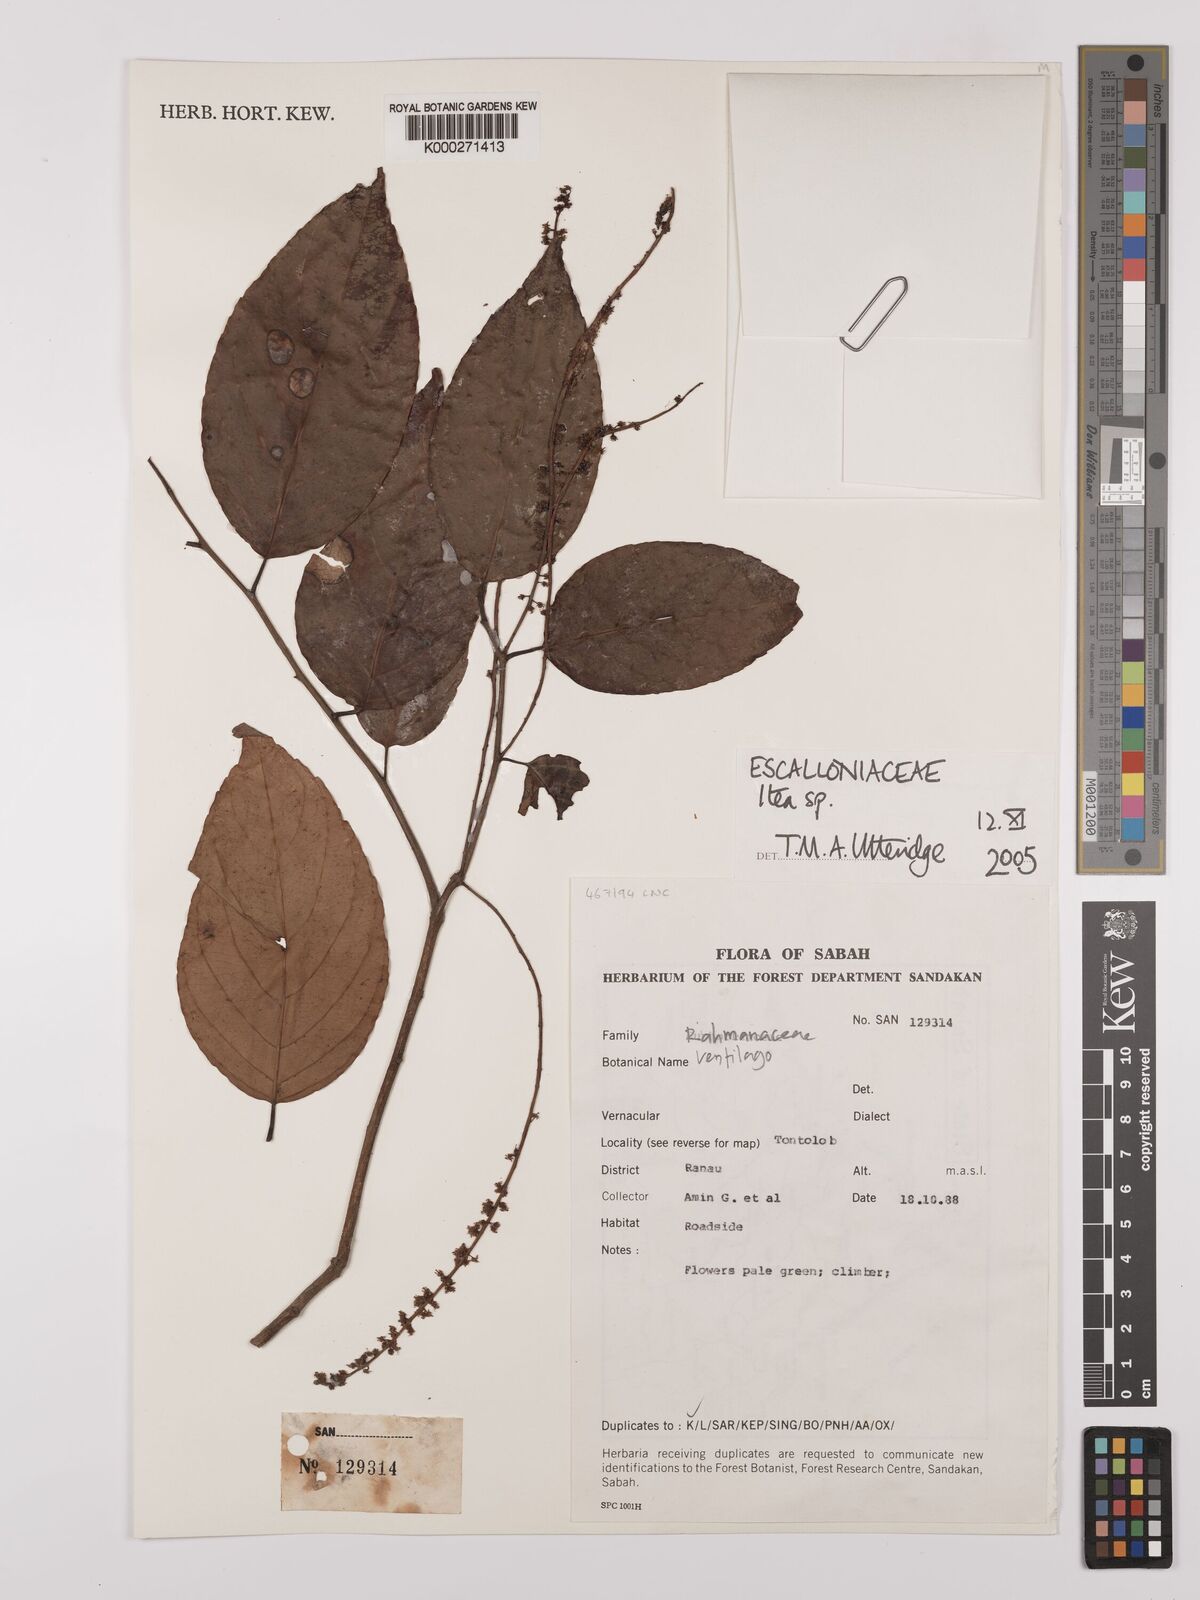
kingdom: Plantae
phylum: Tracheophyta
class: Magnoliopsida
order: Saxifragales
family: Iteaceae
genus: Itea
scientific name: Itea
